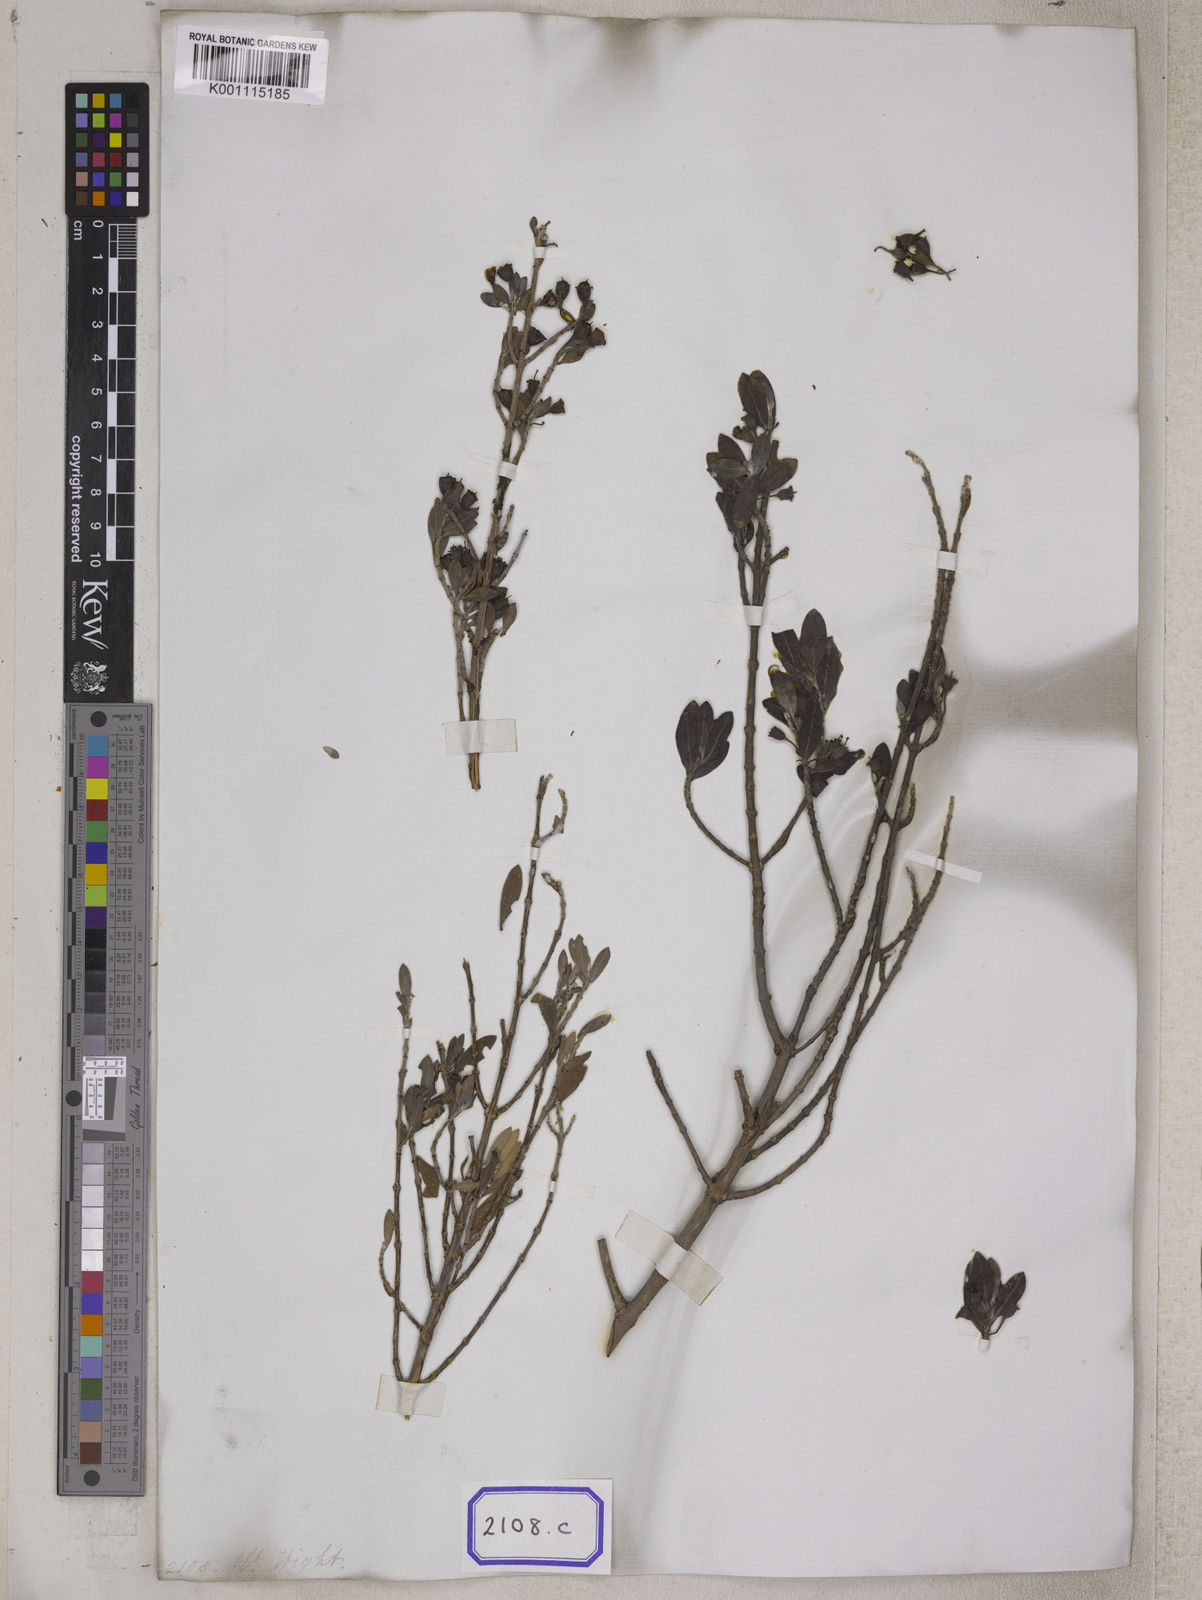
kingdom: Plantae
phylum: Tracheophyta
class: Magnoliopsida
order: Myrtales
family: Lythraceae
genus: Pemphis
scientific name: Pemphis acidula
